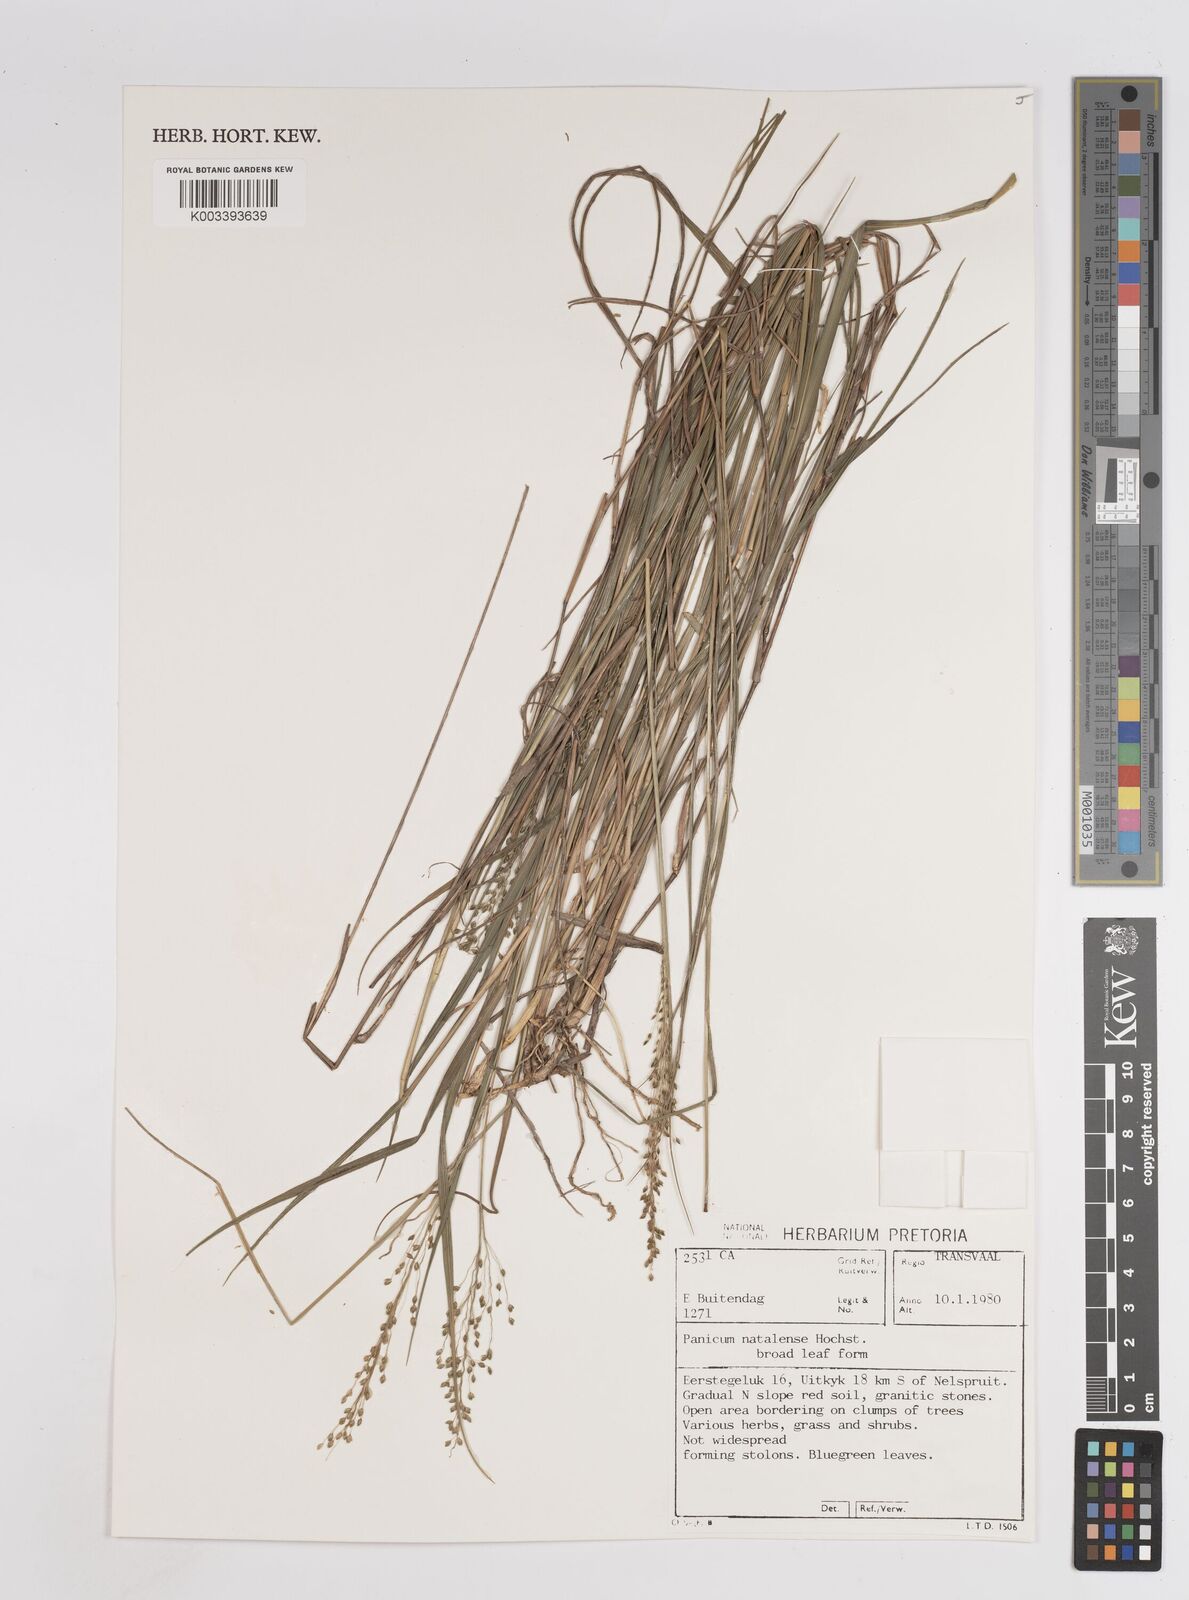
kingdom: Plantae
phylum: Tracheophyta
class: Liliopsida
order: Poales
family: Poaceae
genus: Trichanthecium
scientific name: Trichanthecium natalense
